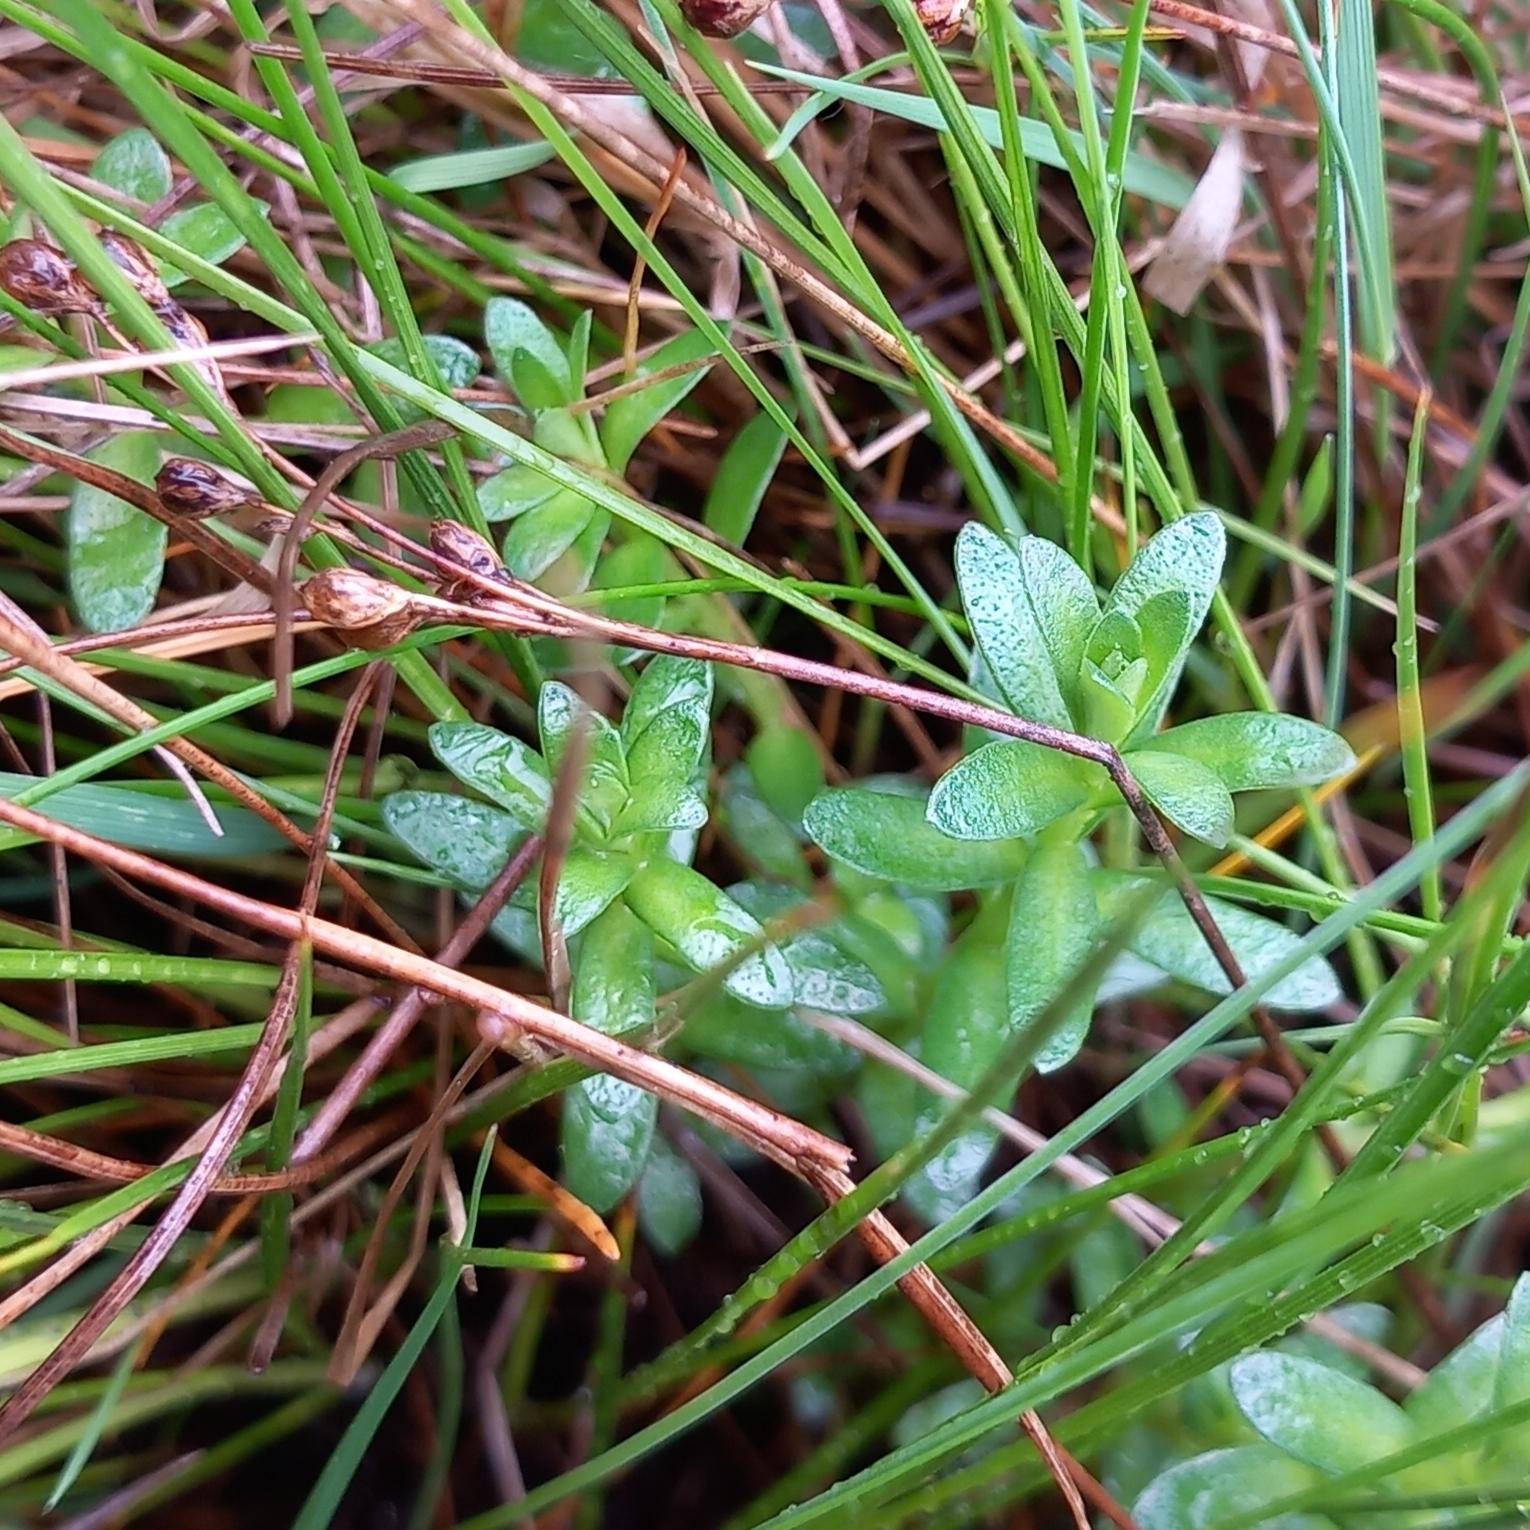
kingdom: Plantae
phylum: Tracheophyta
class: Magnoliopsida
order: Ericales
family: Primulaceae
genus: Lysimachia
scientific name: Lysimachia maritima
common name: Sandkryb
